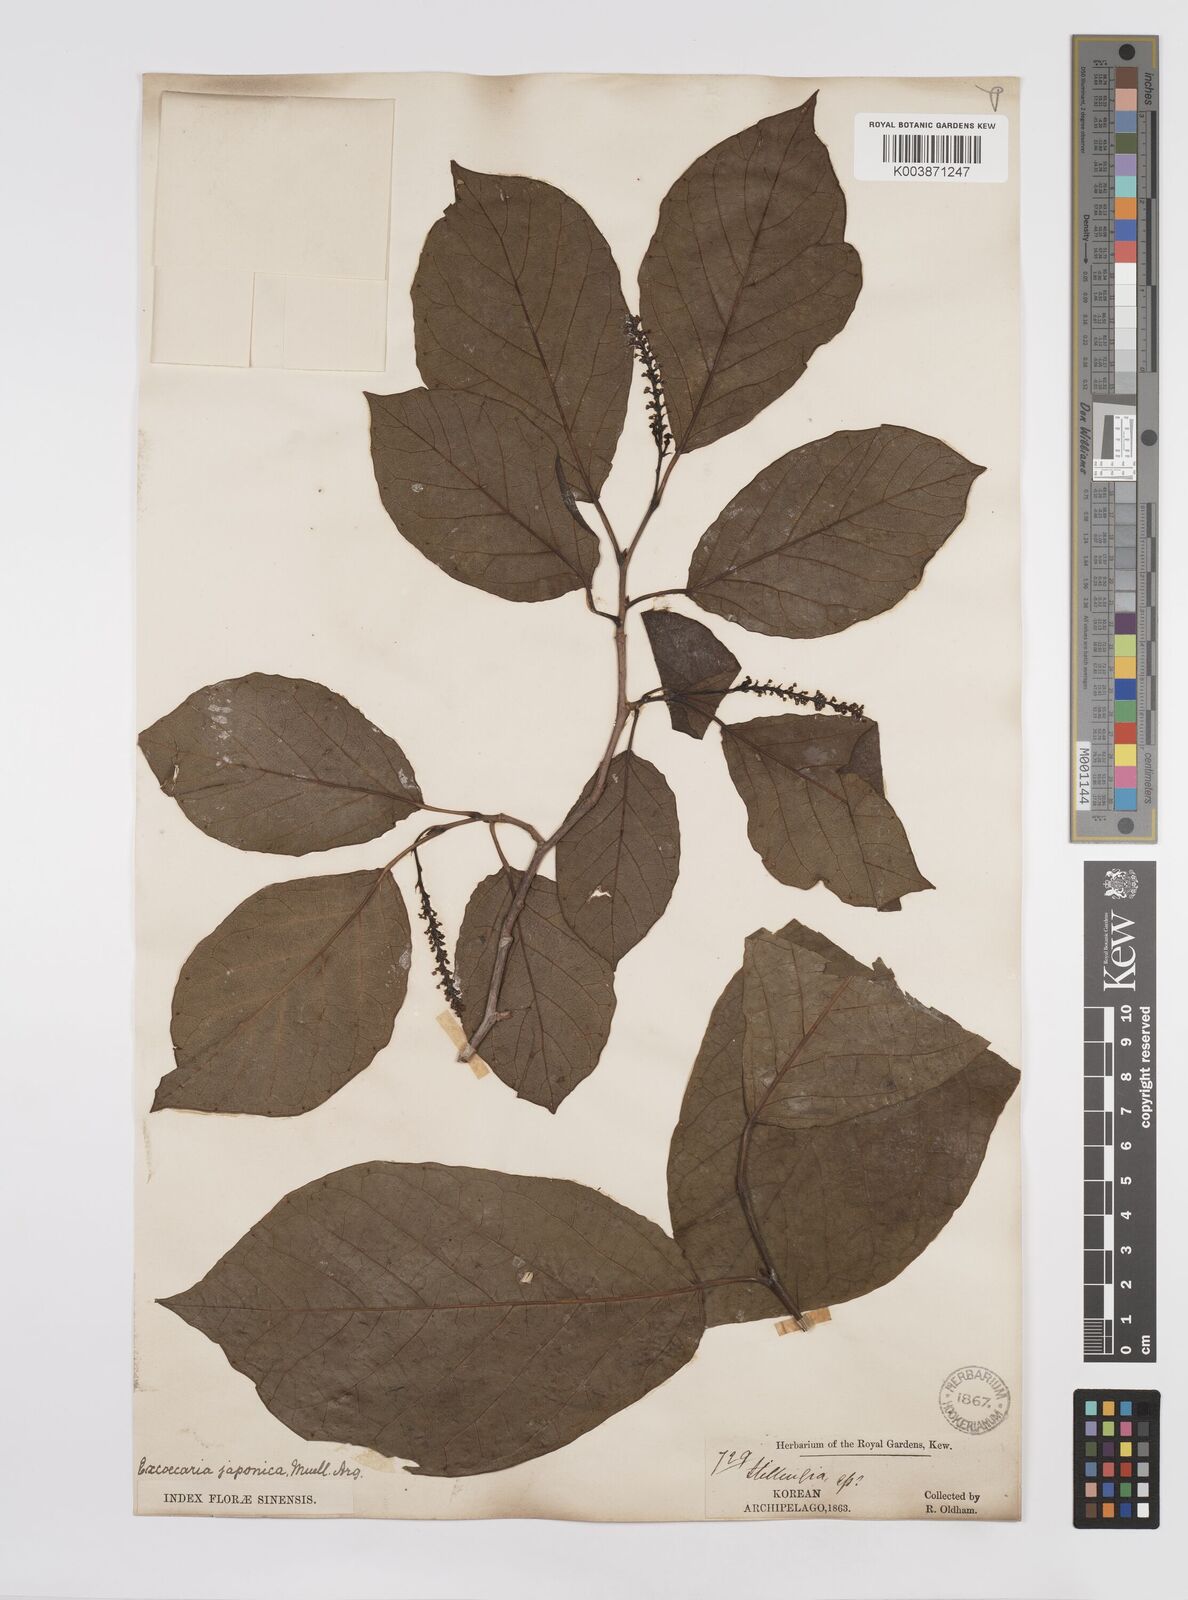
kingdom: Plantae
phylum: Tracheophyta
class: Magnoliopsida
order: Malpighiales
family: Euphorbiaceae
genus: Neoshirakia
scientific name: Neoshirakia japonica
